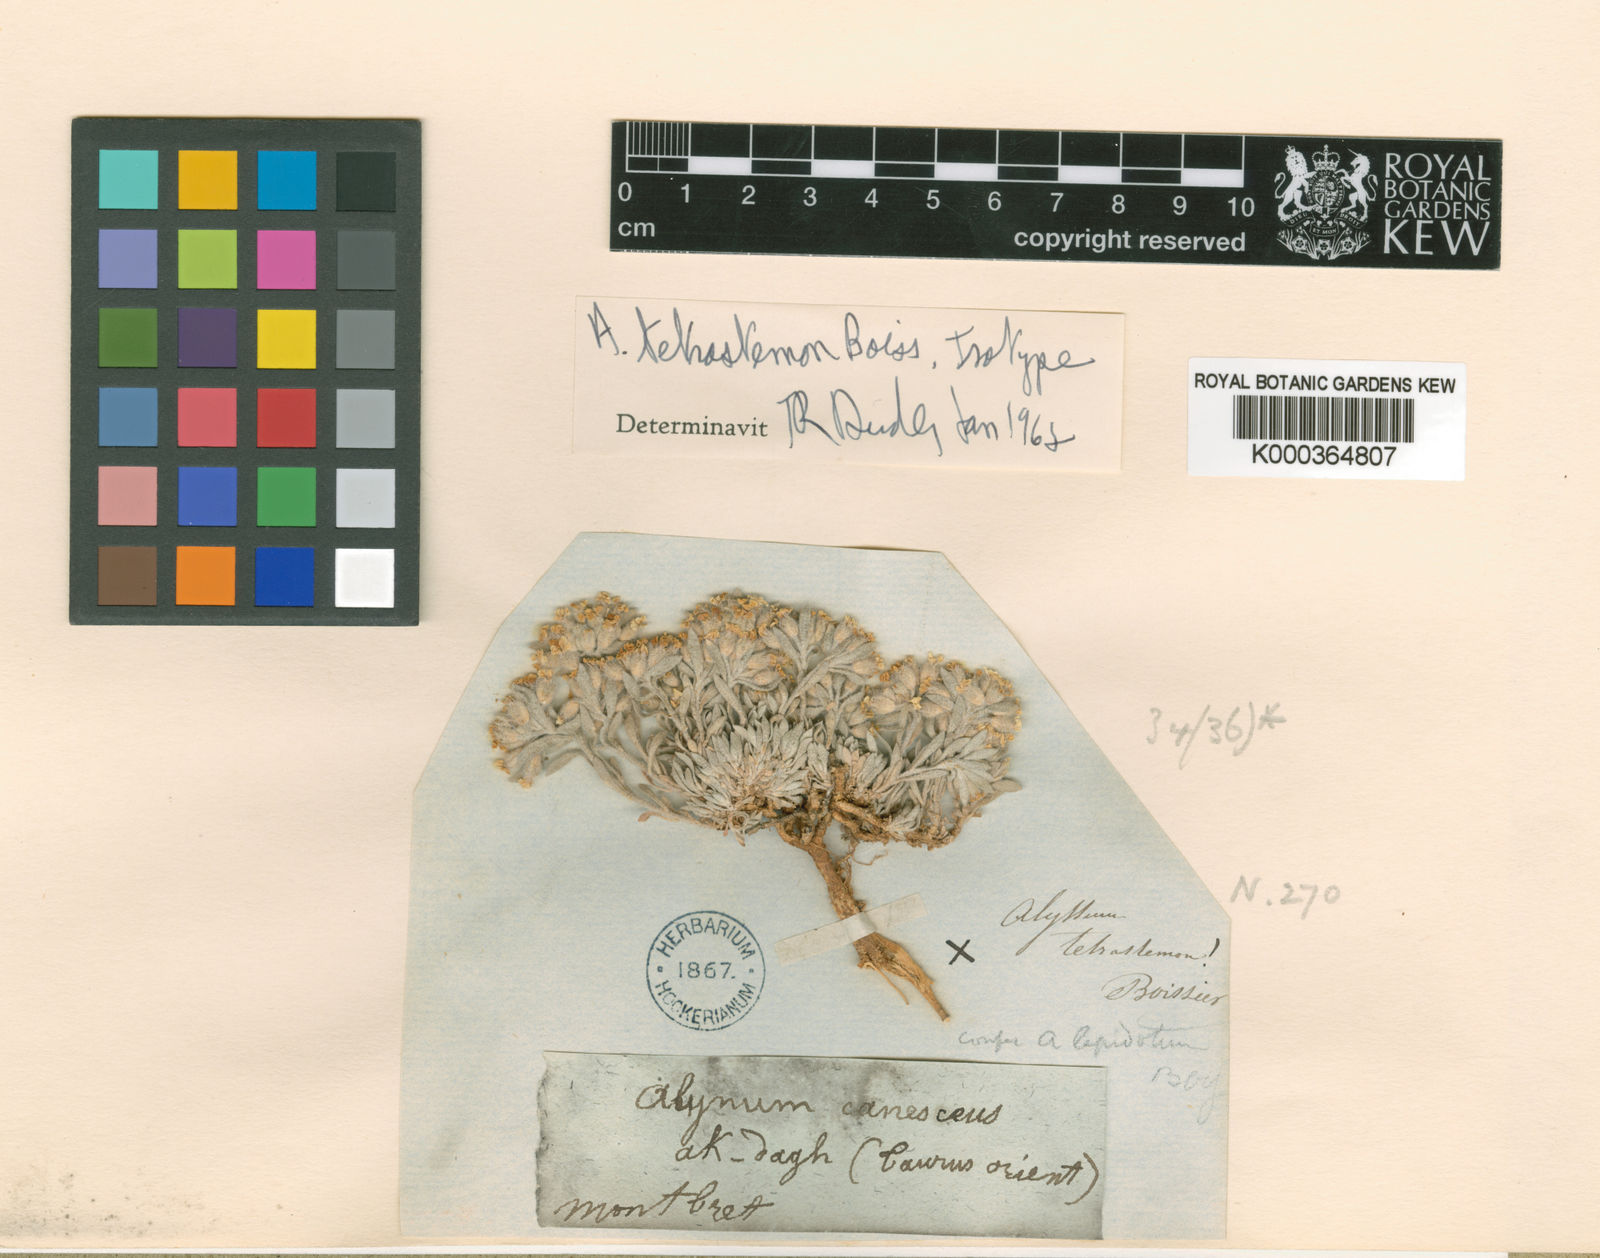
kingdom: Plantae
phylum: Tracheophyta
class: Magnoliopsida
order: Brassicales
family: Brassicaceae
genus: Alyssum
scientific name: Alyssum baumgartnerianum
